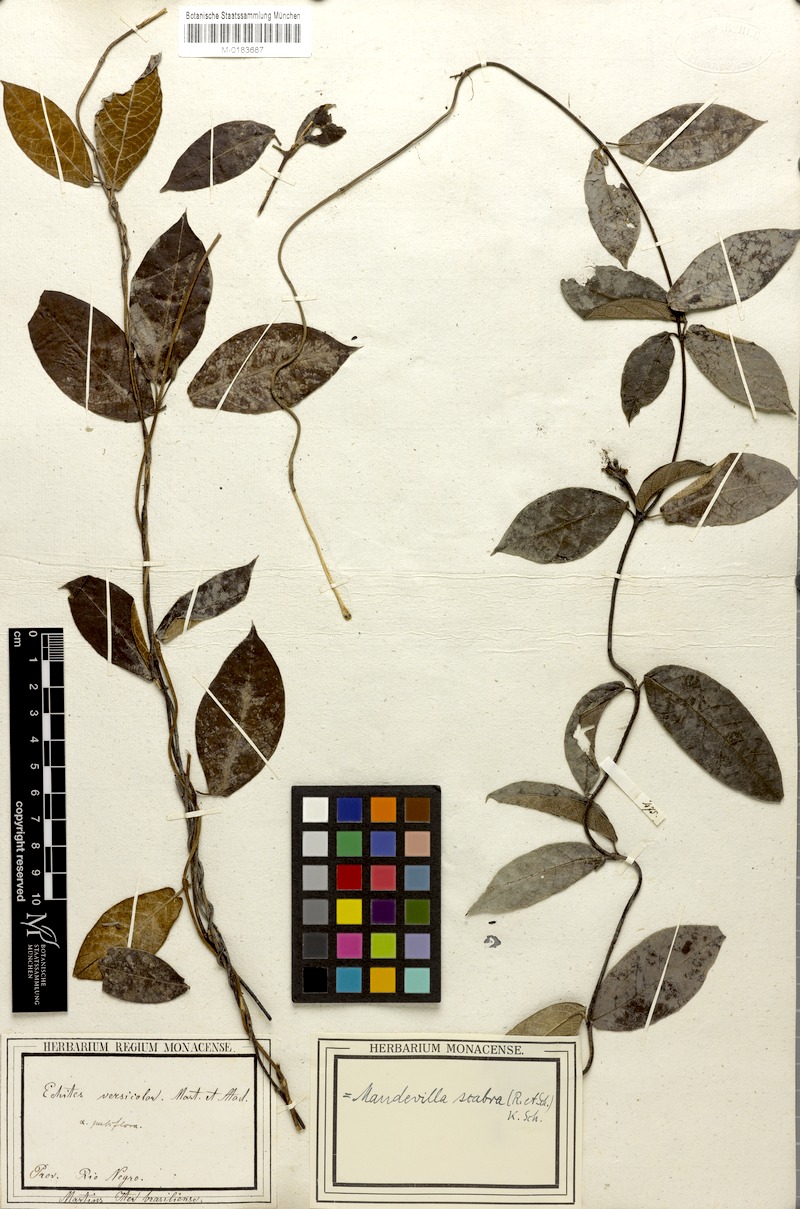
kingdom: Plantae
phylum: Tracheophyta
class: Magnoliopsida
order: Gentianales
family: Apocynaceae
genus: Mandevilla
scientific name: Mandevilla scabra
